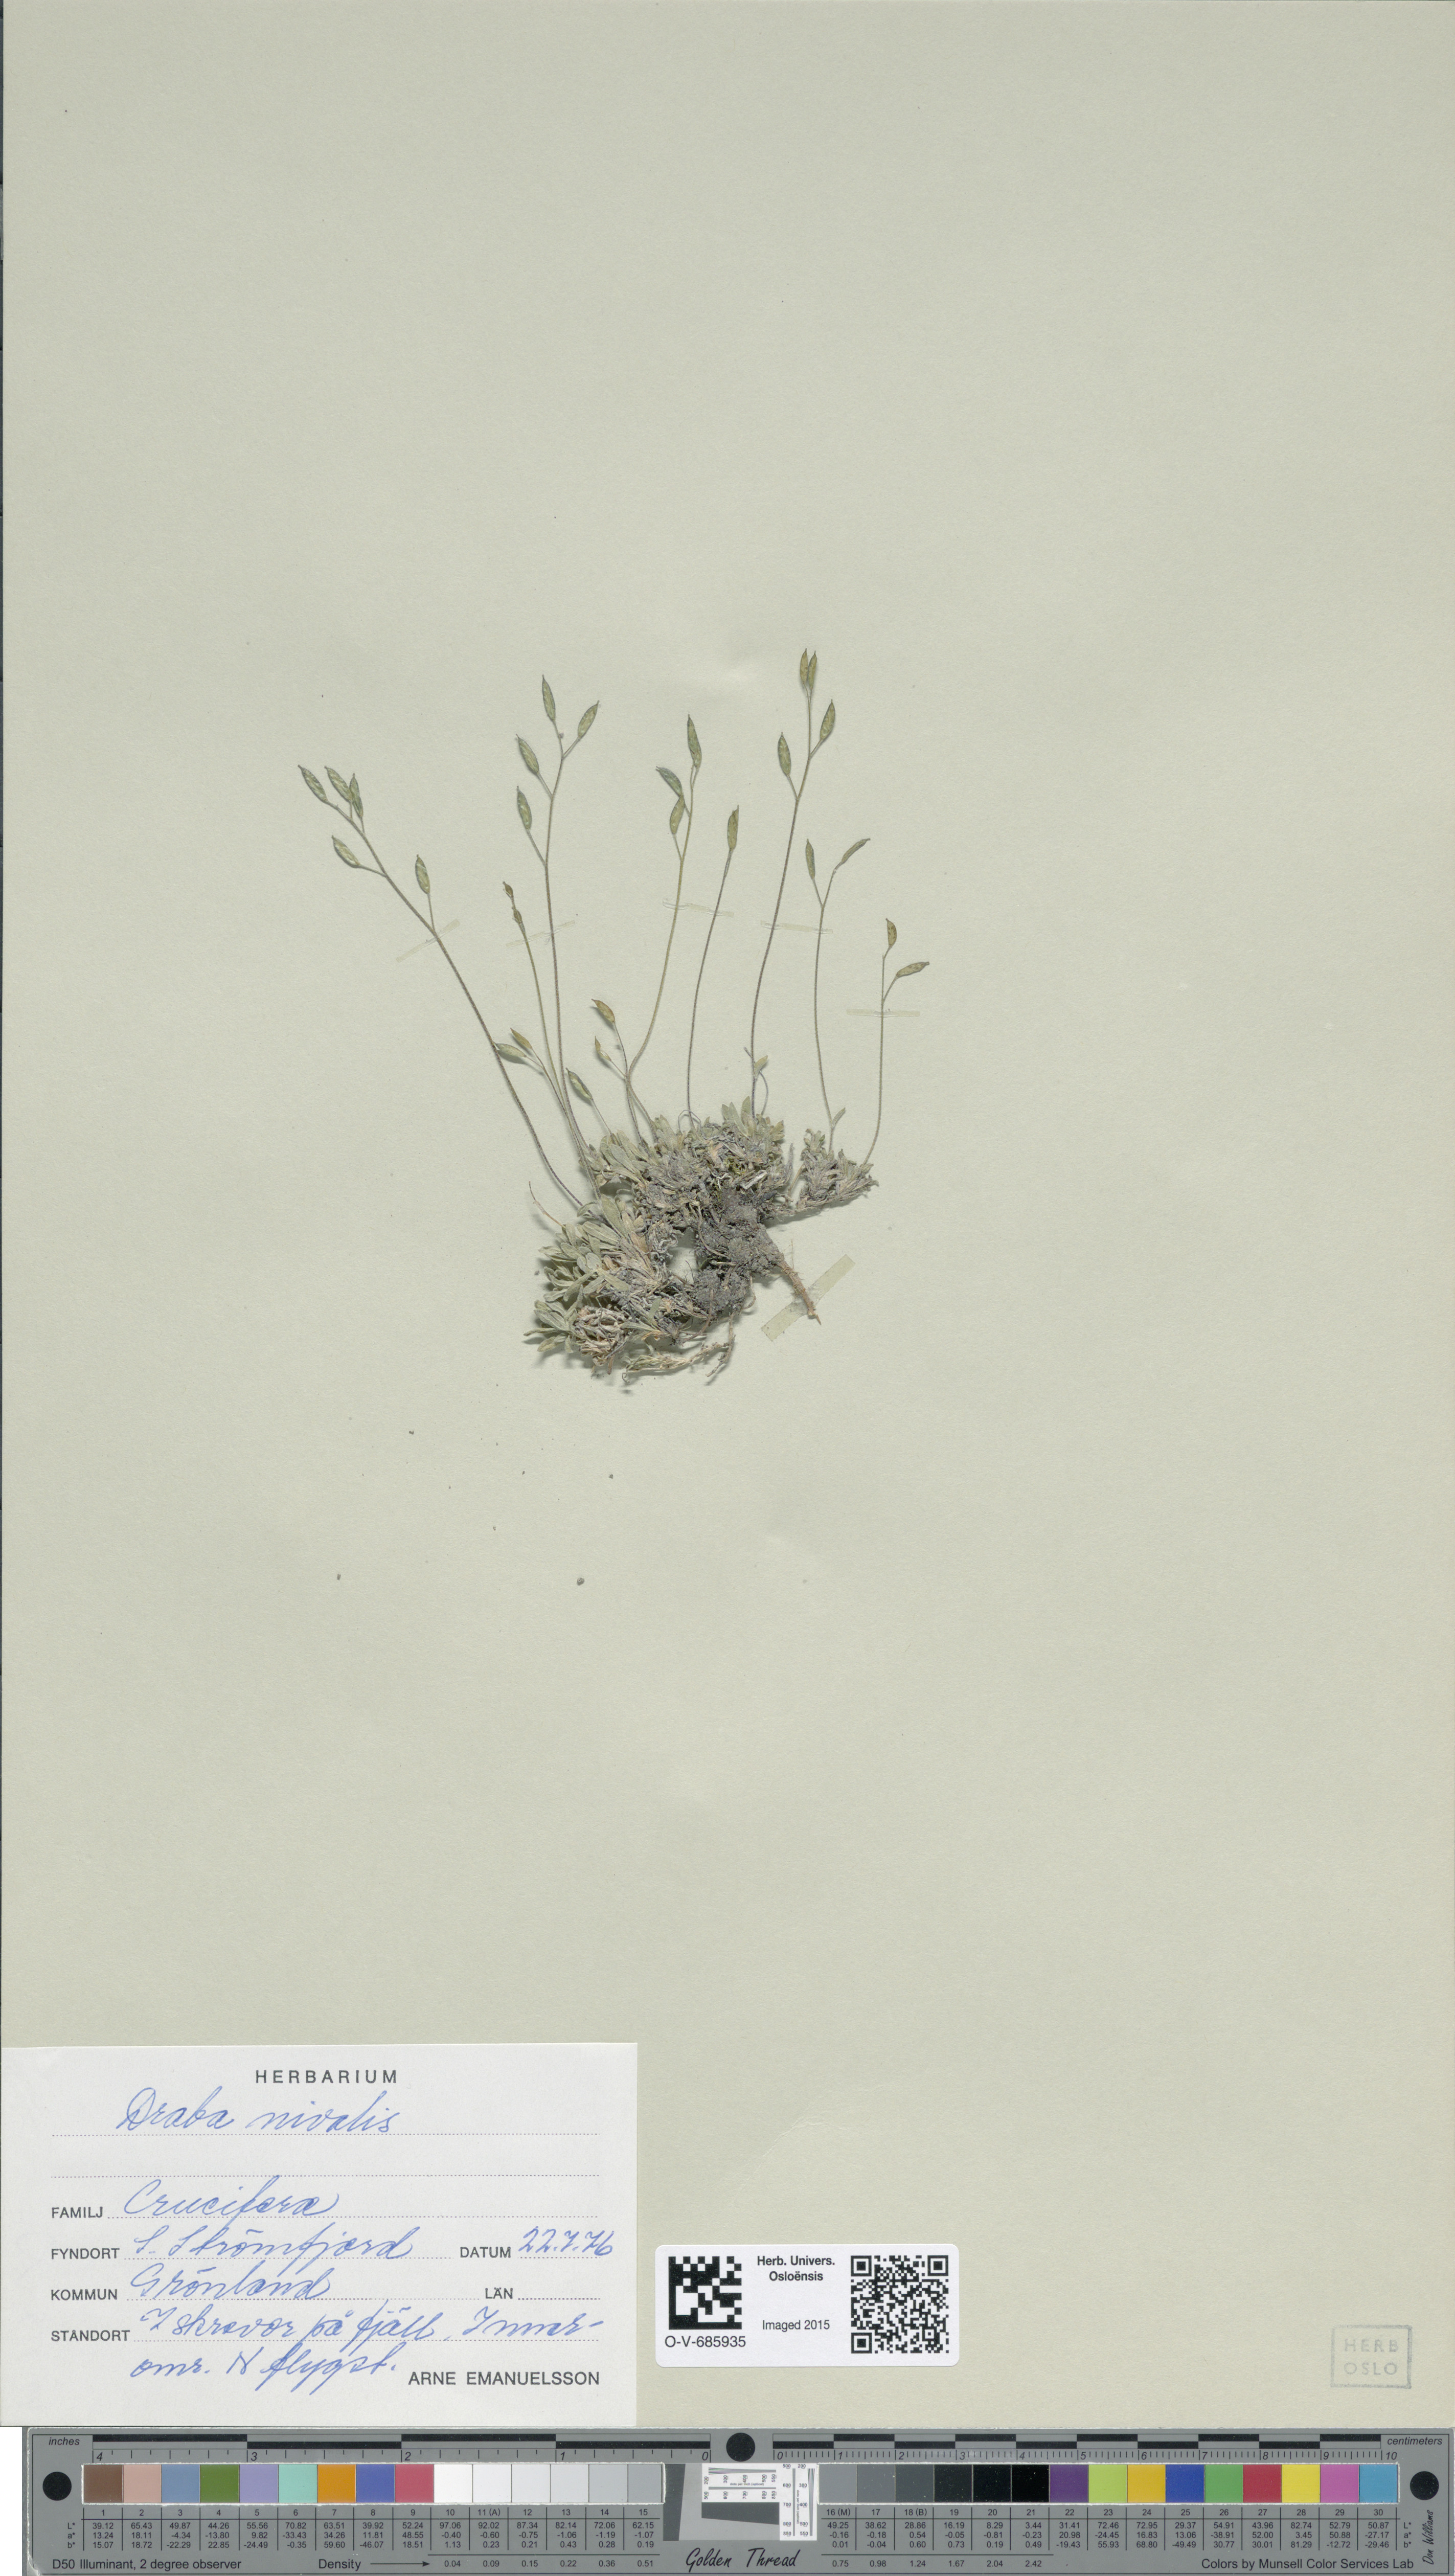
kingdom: Plantae
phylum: Tracheophyta
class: Magnoliopsida
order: Brassicales
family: Brassicaceae
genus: Draba
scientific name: Draba nivalis
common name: Snow draba
